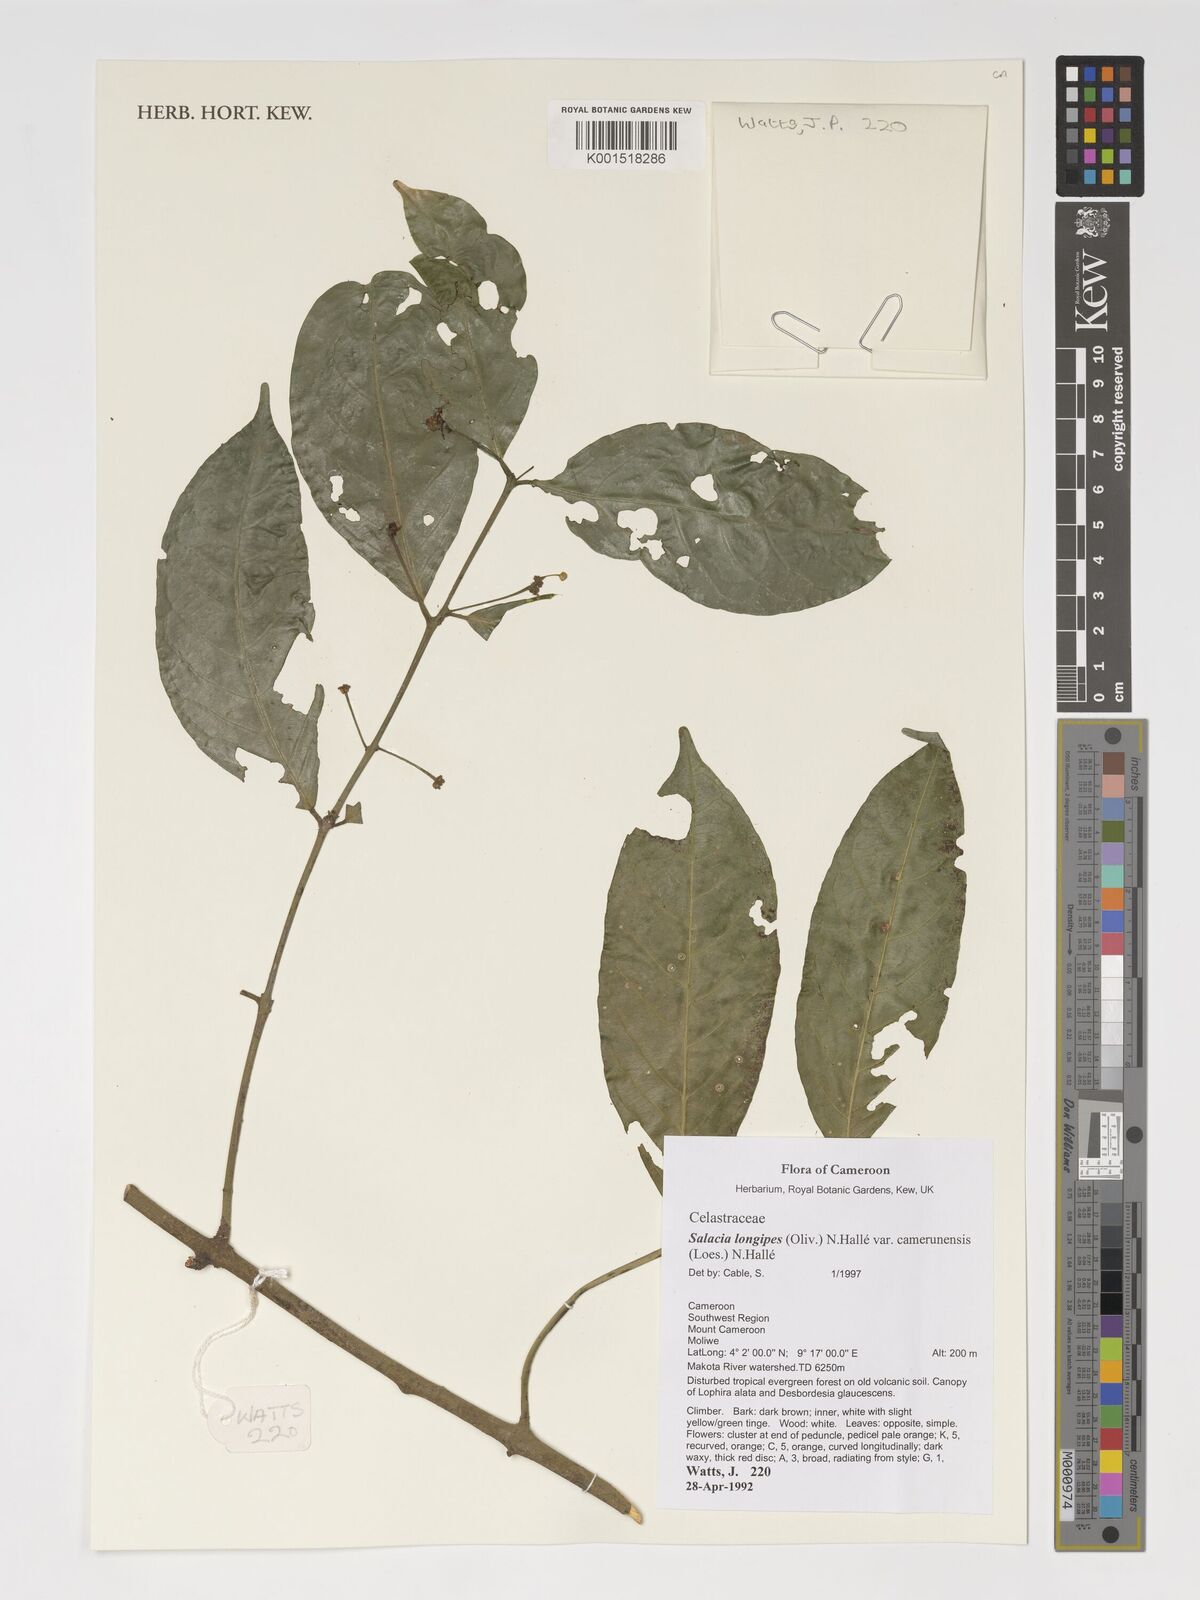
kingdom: Plantae
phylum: Tracheophyta
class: Magnoliopsida
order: Celastrales
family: Celastraceae
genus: Salacia
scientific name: Salacia longipes
